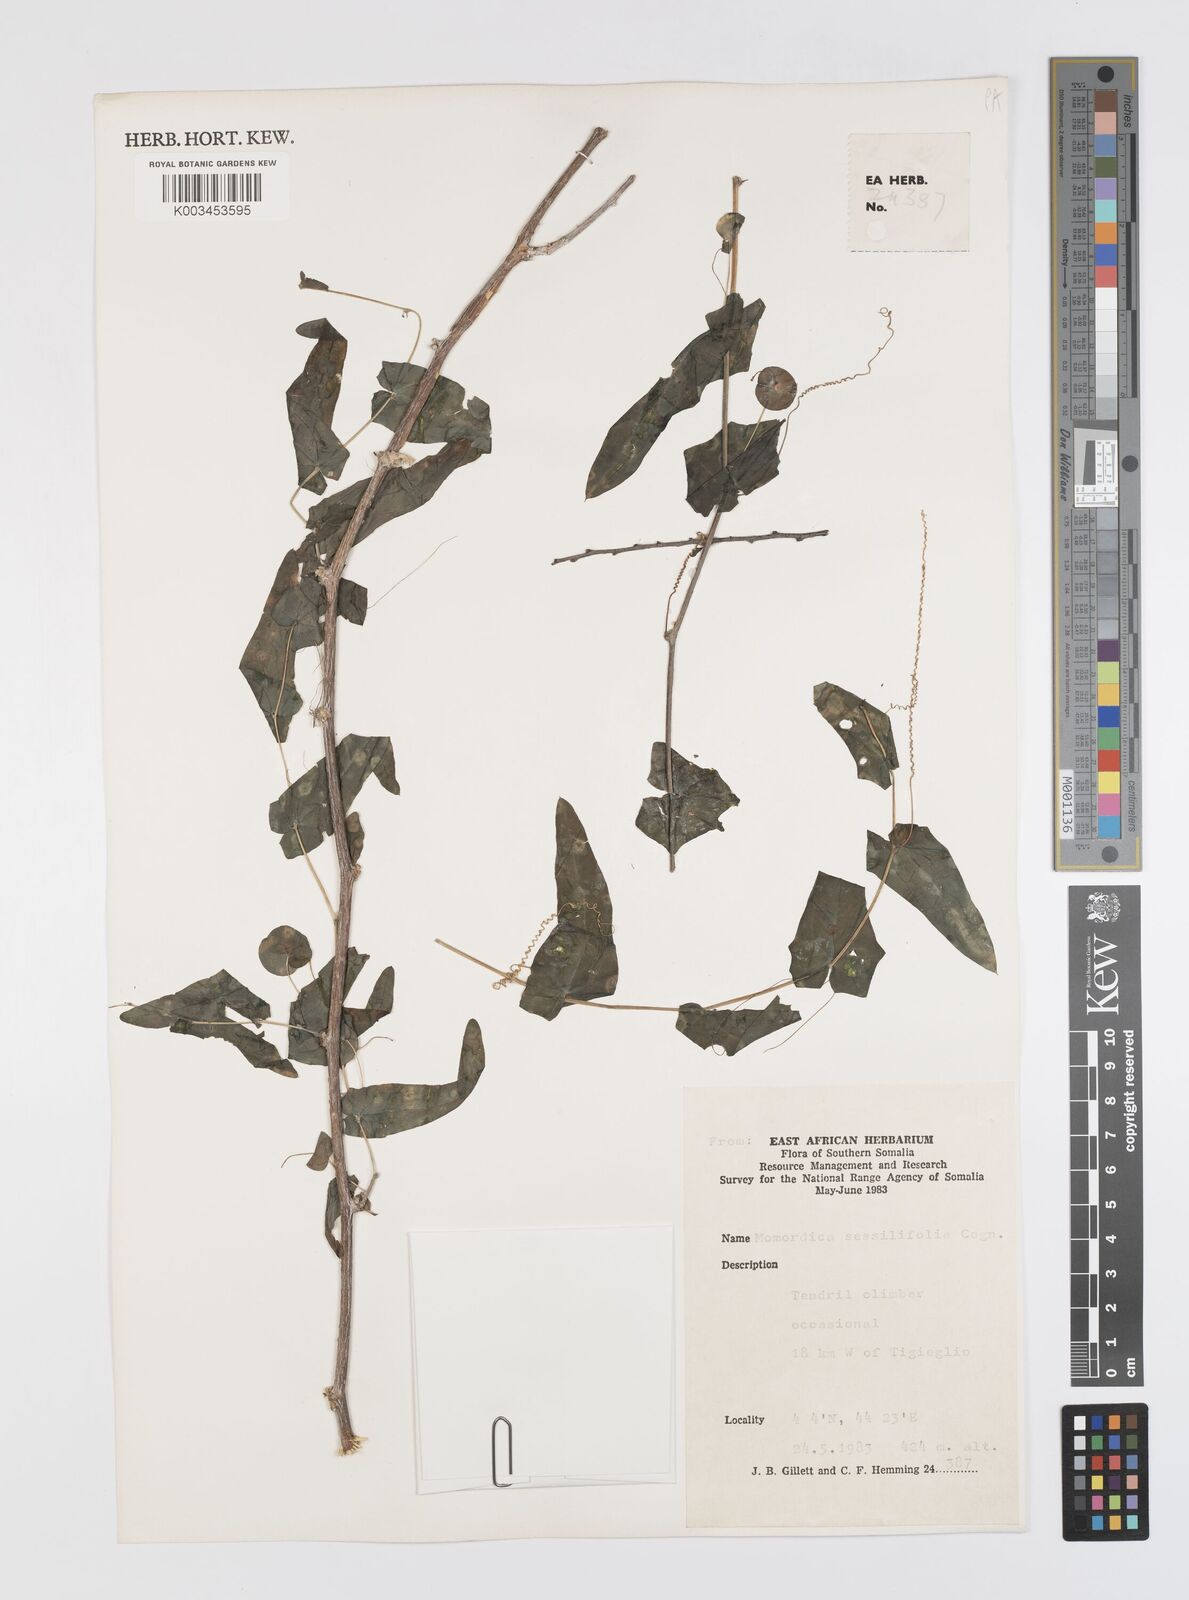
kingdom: Plantae
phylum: Tracheophyta
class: Magnoliopsida
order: Cucurbitales
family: Cucurbitaceae
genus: Momordica
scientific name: Momordica sessilifolia
